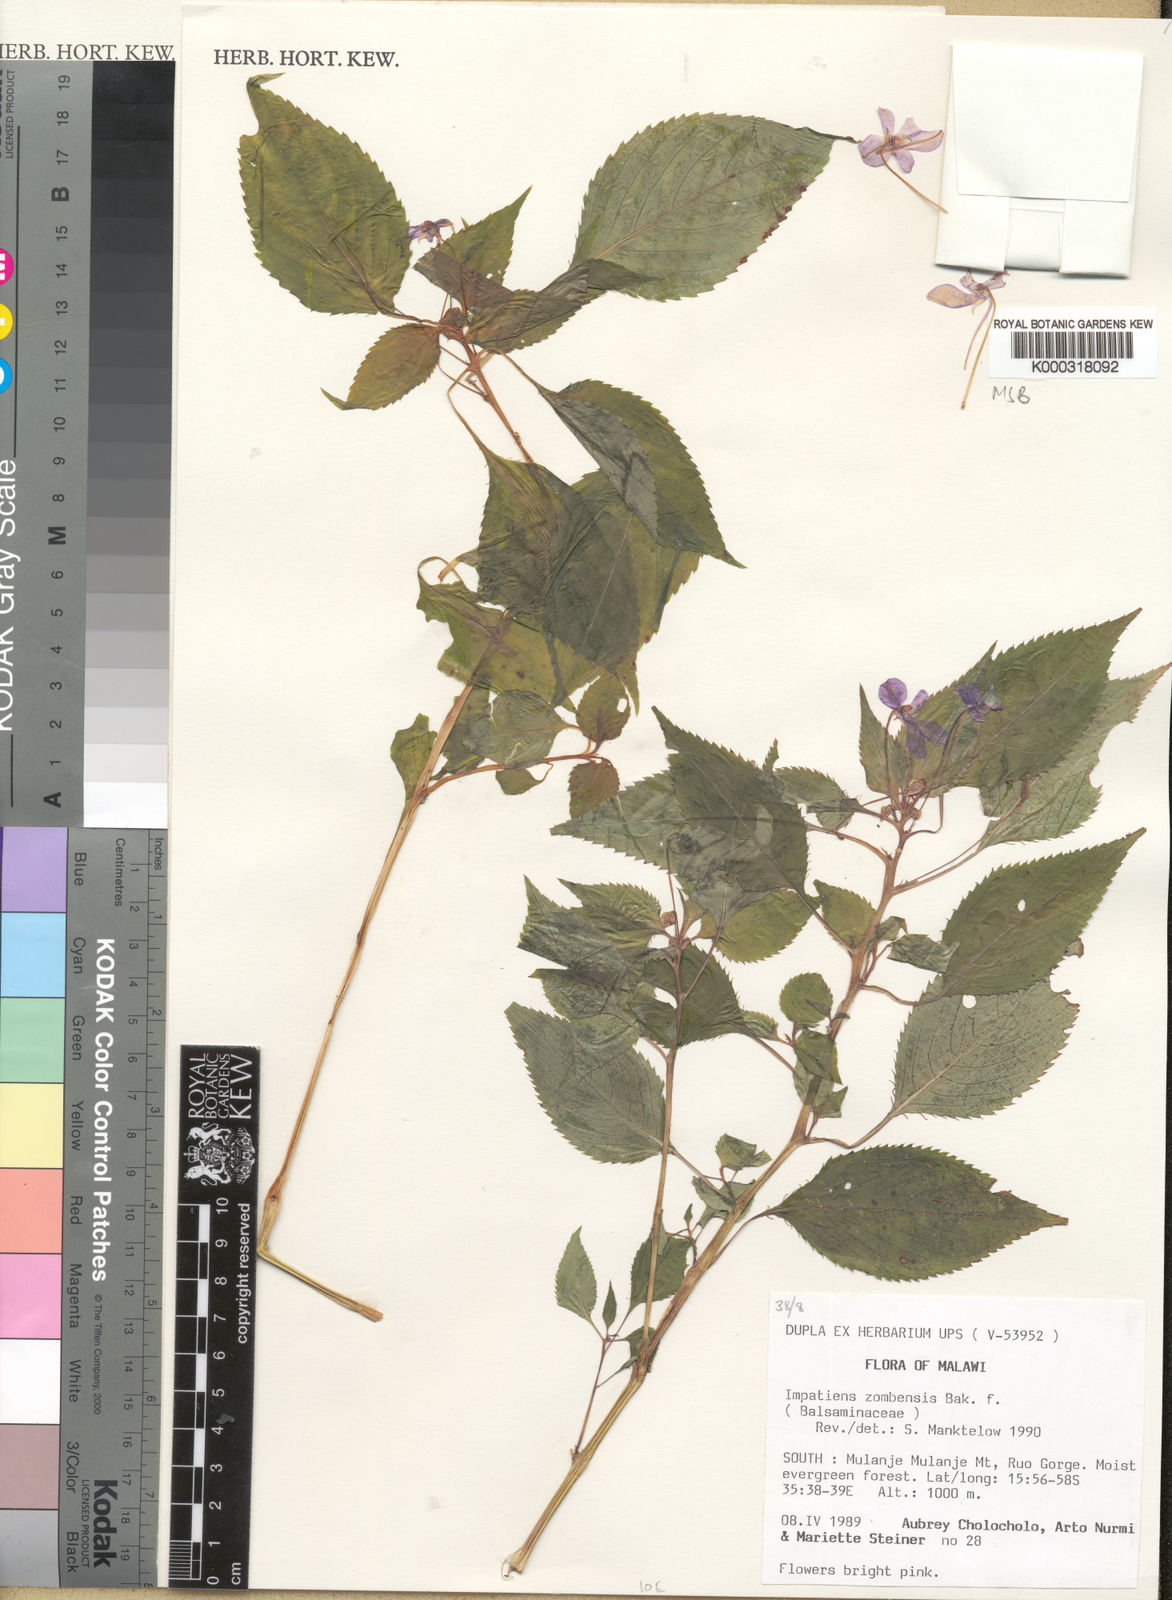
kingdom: Plantae
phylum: Tracheophyta
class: Magnoliopsida
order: Ericales
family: Balsaminaceae
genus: Impatiens
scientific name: Impatiens zombensis
